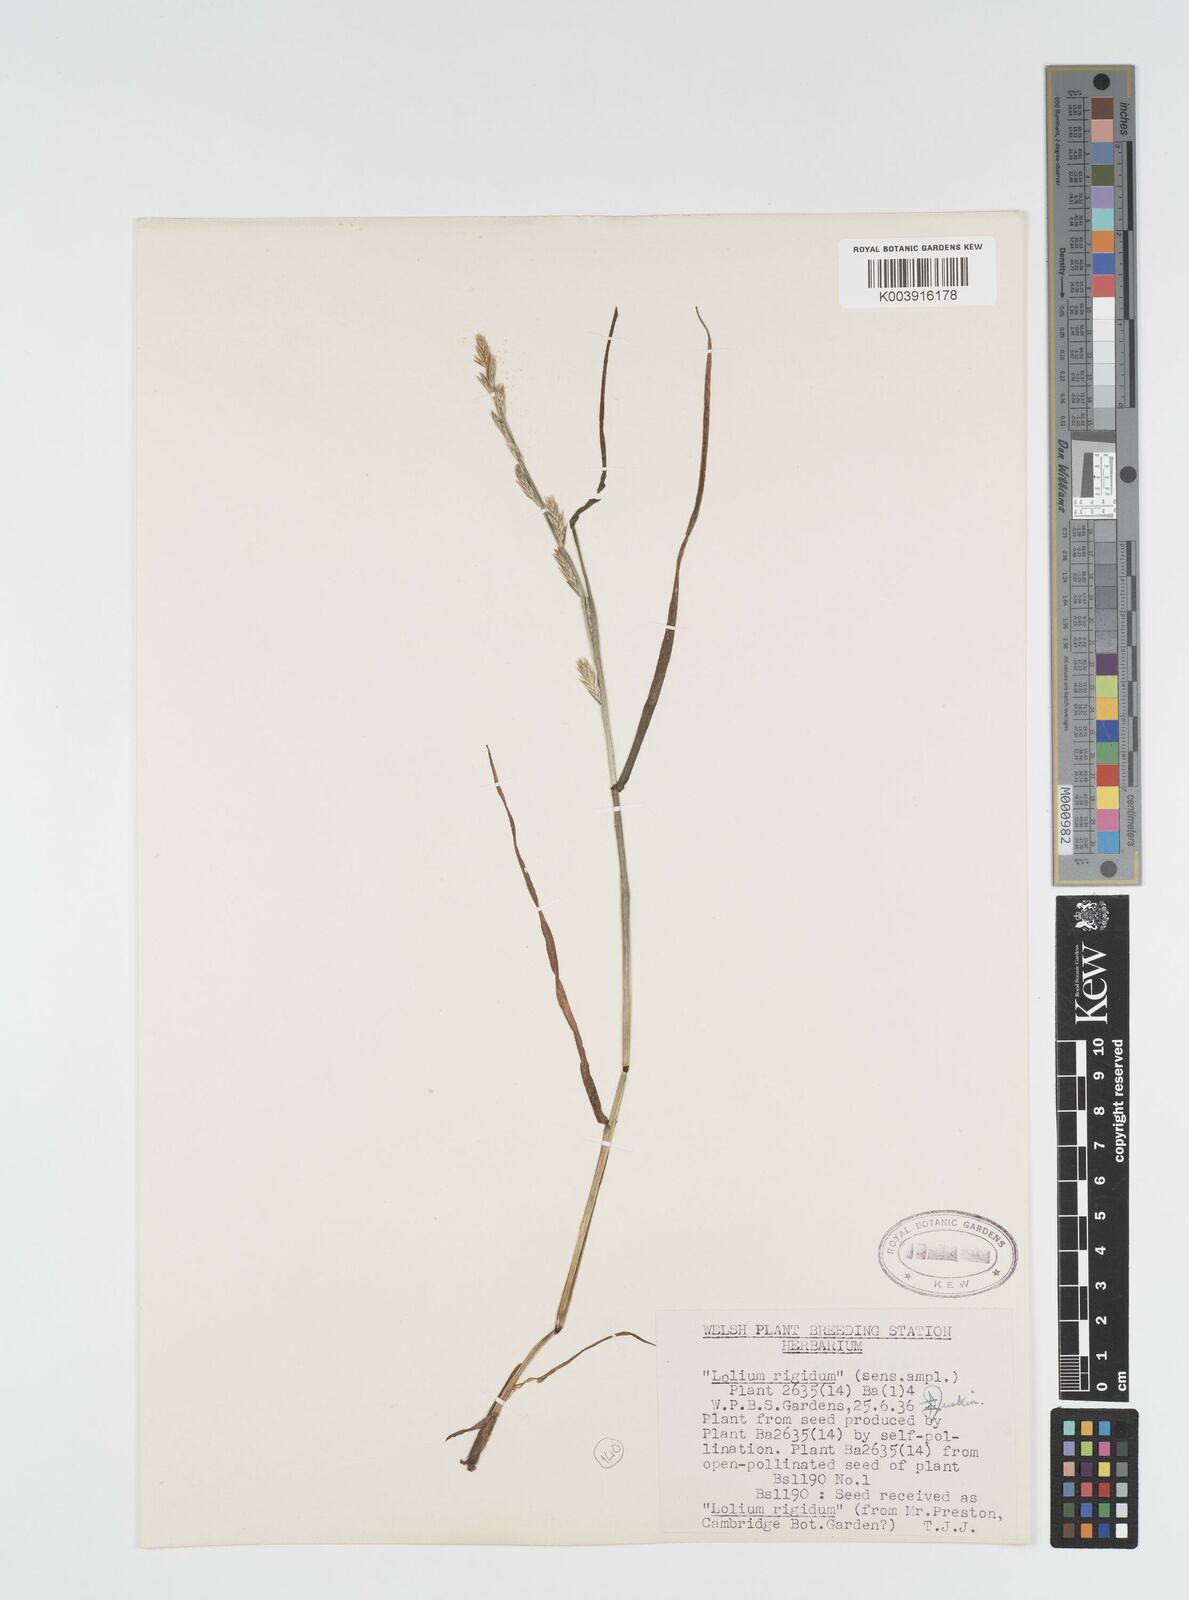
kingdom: Plantae
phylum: Tracheophyta
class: Liliopsida
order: Poales
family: Poaceae
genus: Lolium
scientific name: Lolium rigidum
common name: Wimmera ryegrass
